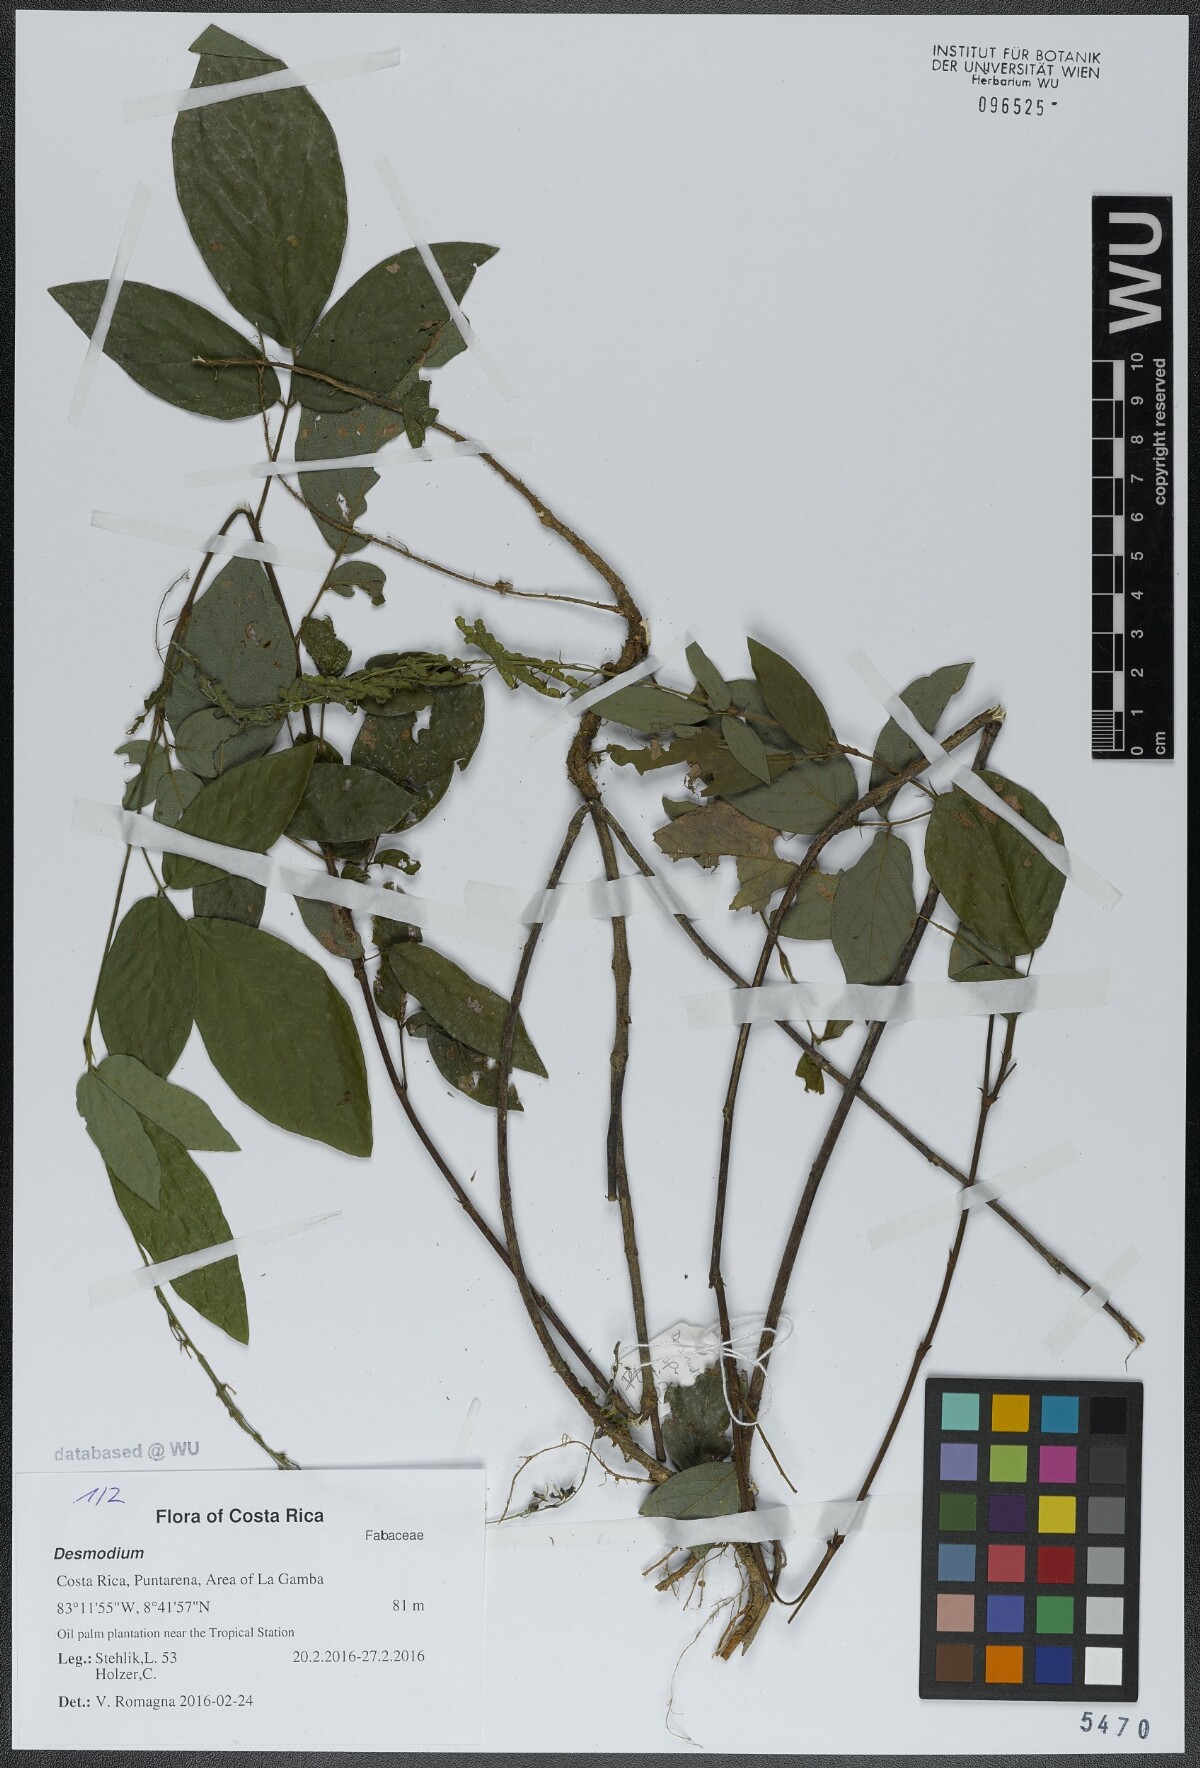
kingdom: Plantae
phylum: Tracheophyta
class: Magnoliopsida
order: Fabales
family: Fabaceae
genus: Desmodium
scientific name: Desmodium
